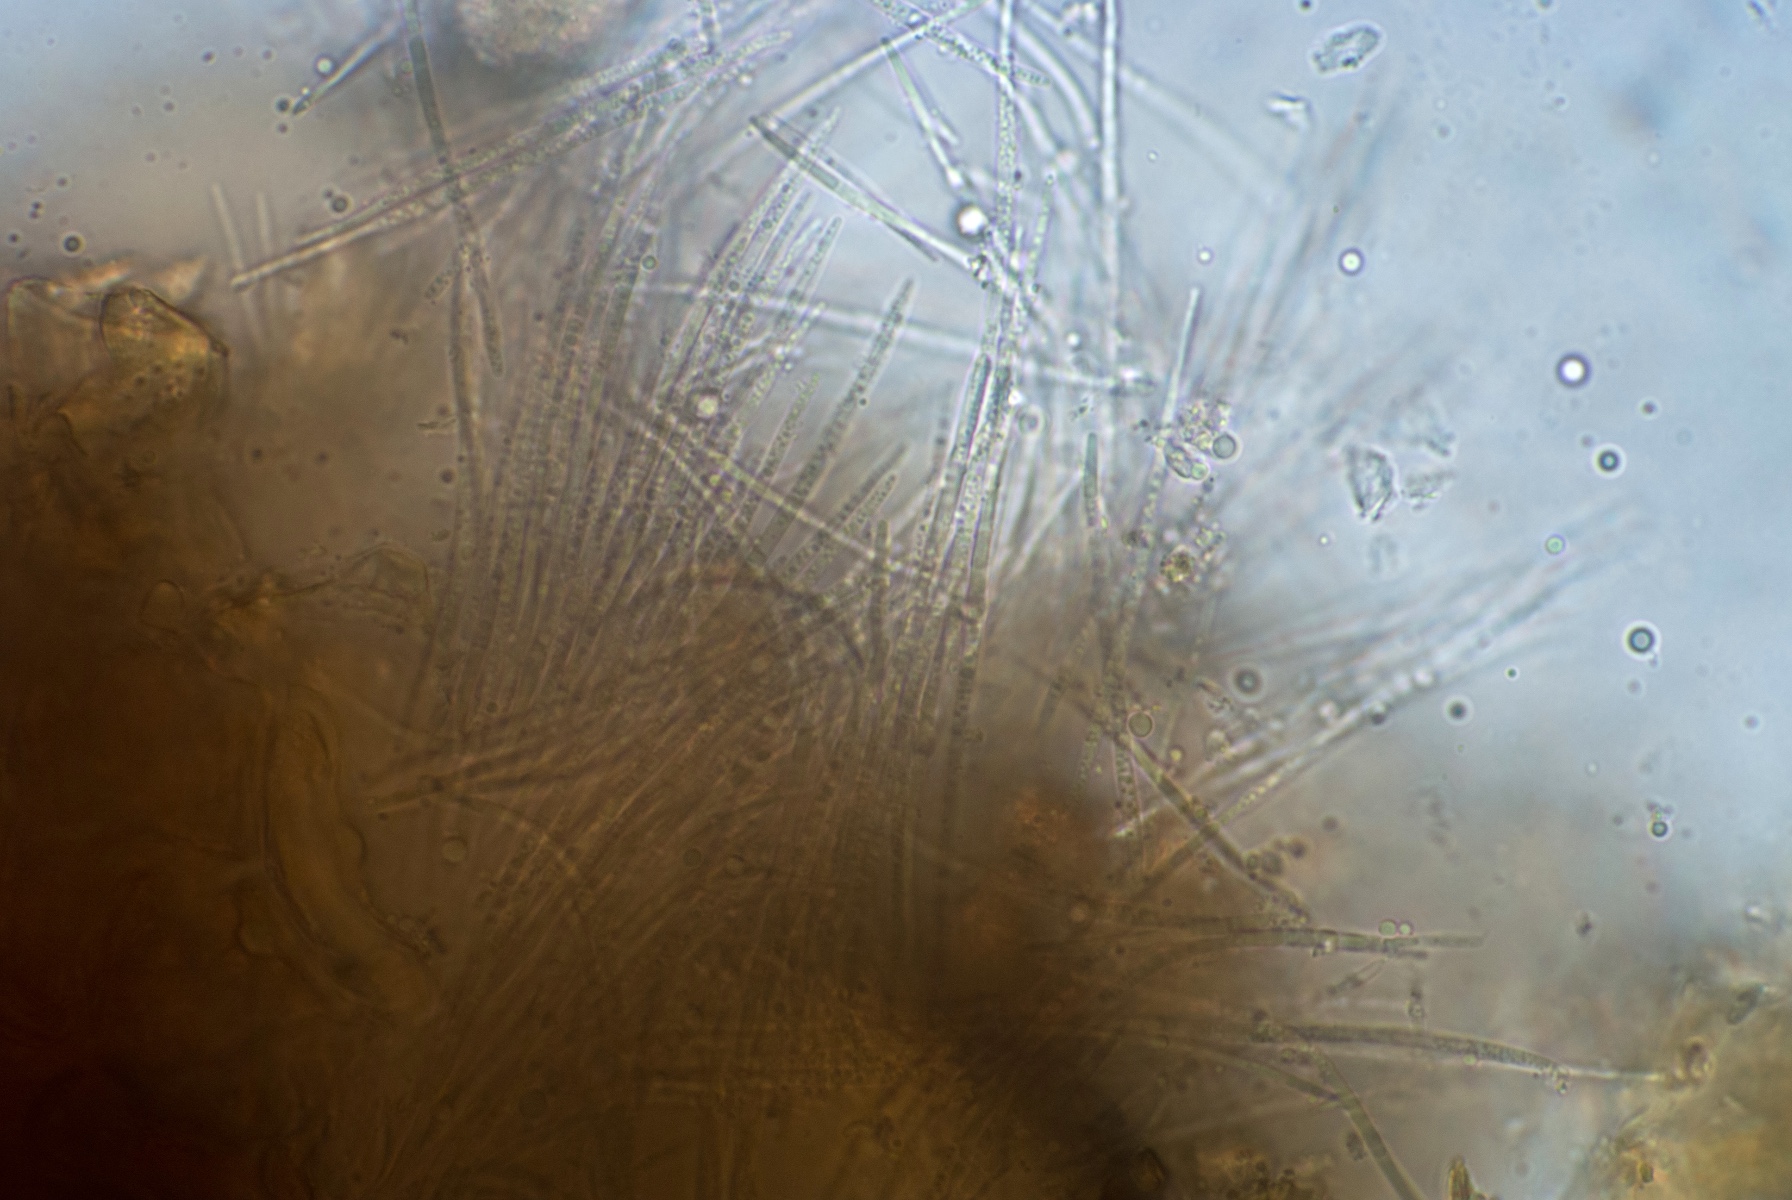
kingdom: Fungi
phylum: Ascomycota
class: Dothideomycetes
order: Capnodiales
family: Mycosphaerellaceae
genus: Septoria
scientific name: Septoria erigerontis
